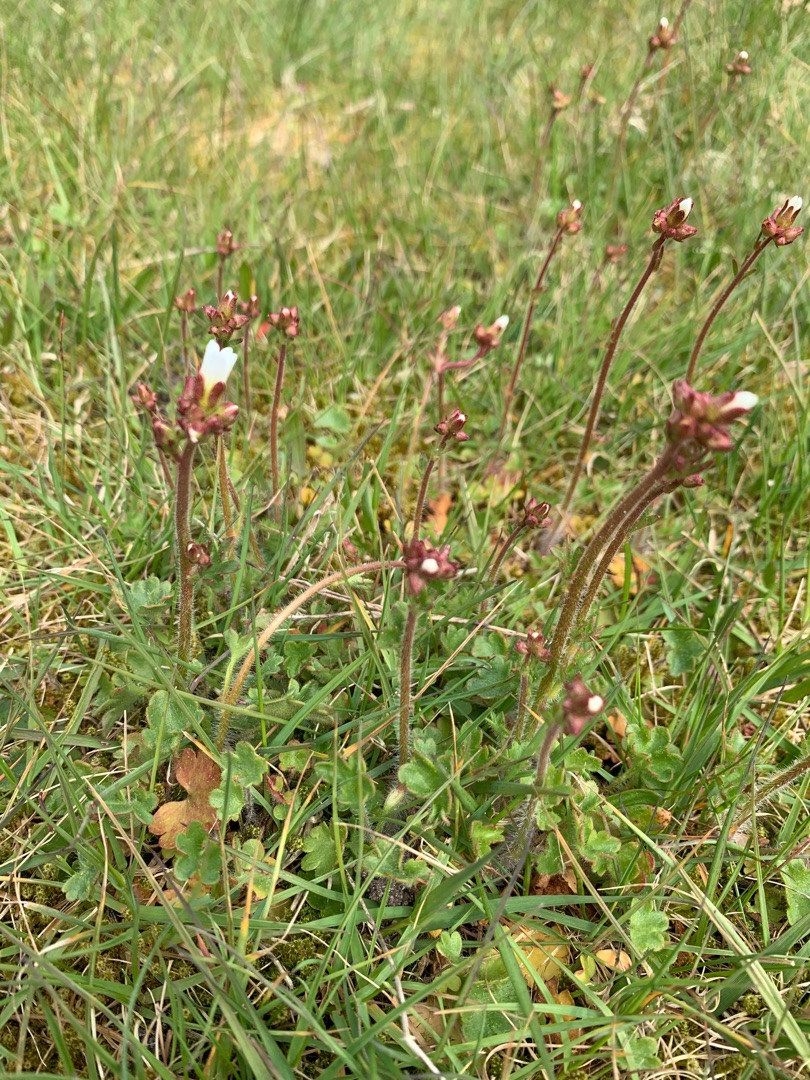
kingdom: Plantae
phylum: Tracheophyta
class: Magnoliopsida
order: Saxifragales
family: Saxifragaceae
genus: Saxifraga
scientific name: Saxifraga granulata
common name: Kornet stenbræk
